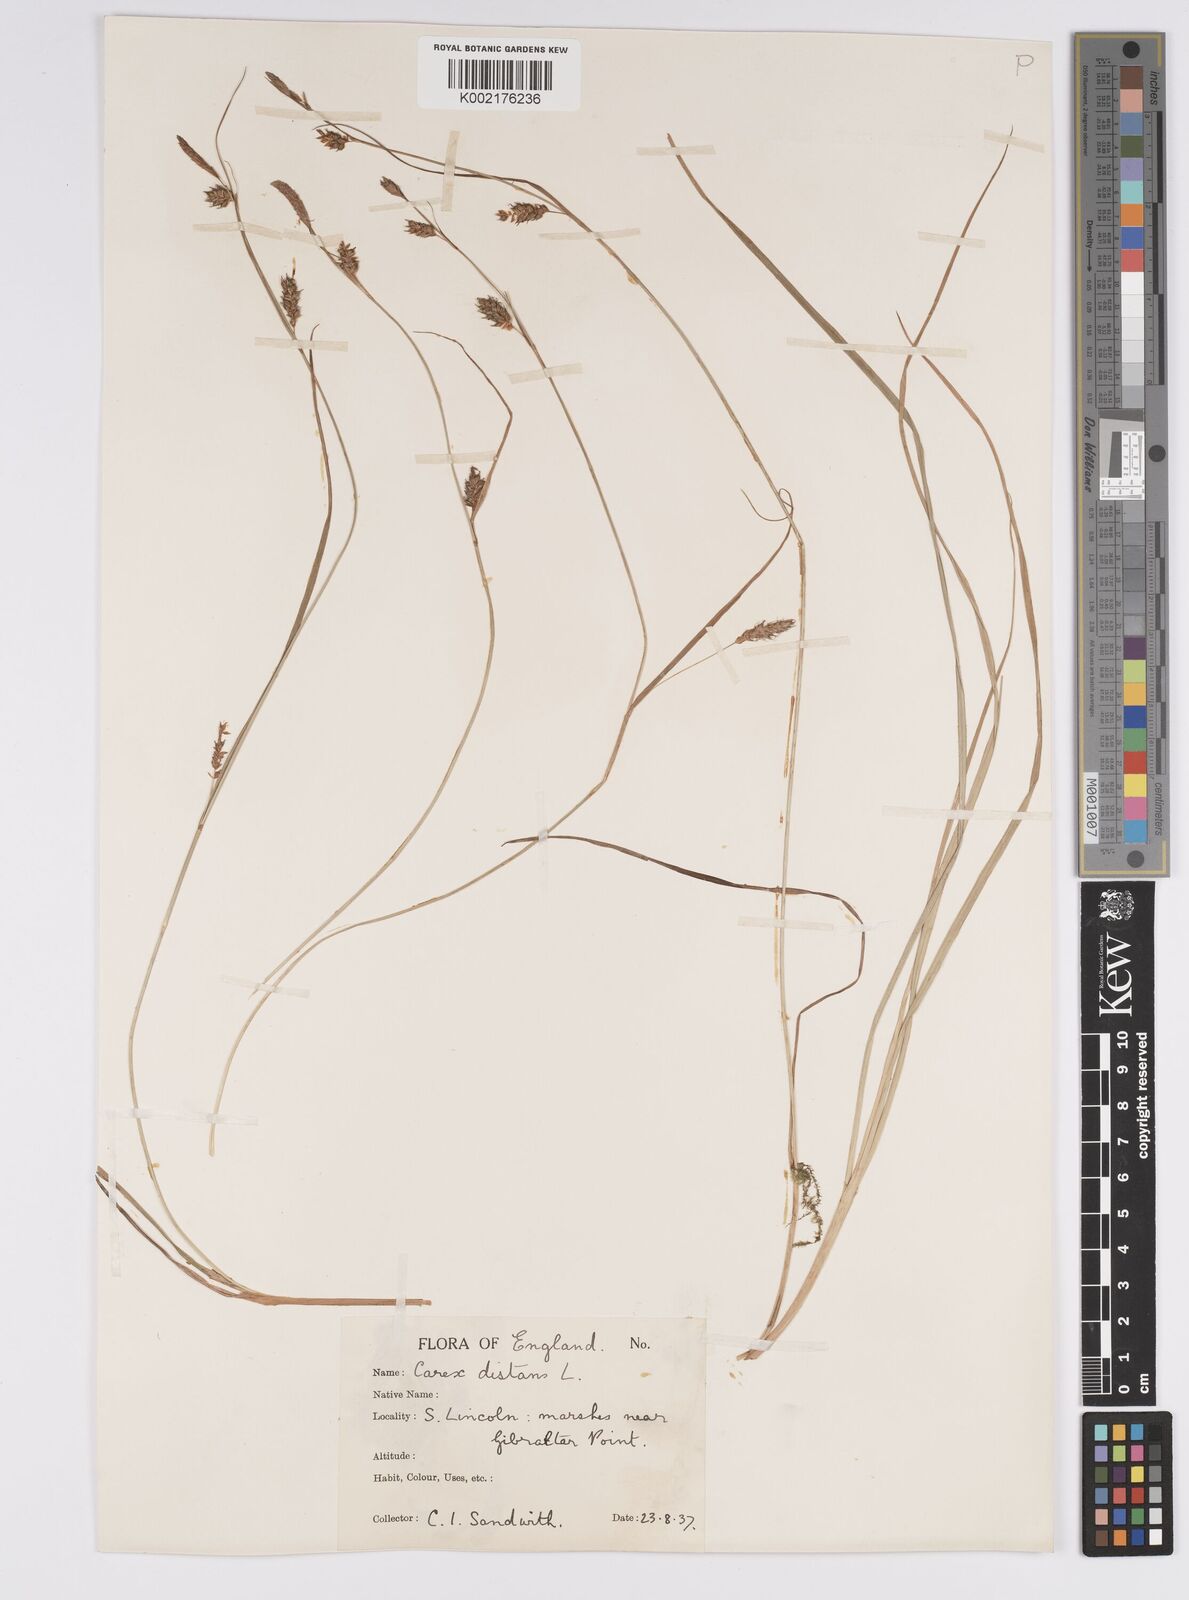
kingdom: Plantae
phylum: Tracheophyta
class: Liliopsida
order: Poales
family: Cyperaceae
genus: Carex
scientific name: Carex distans
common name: Distant sedge
